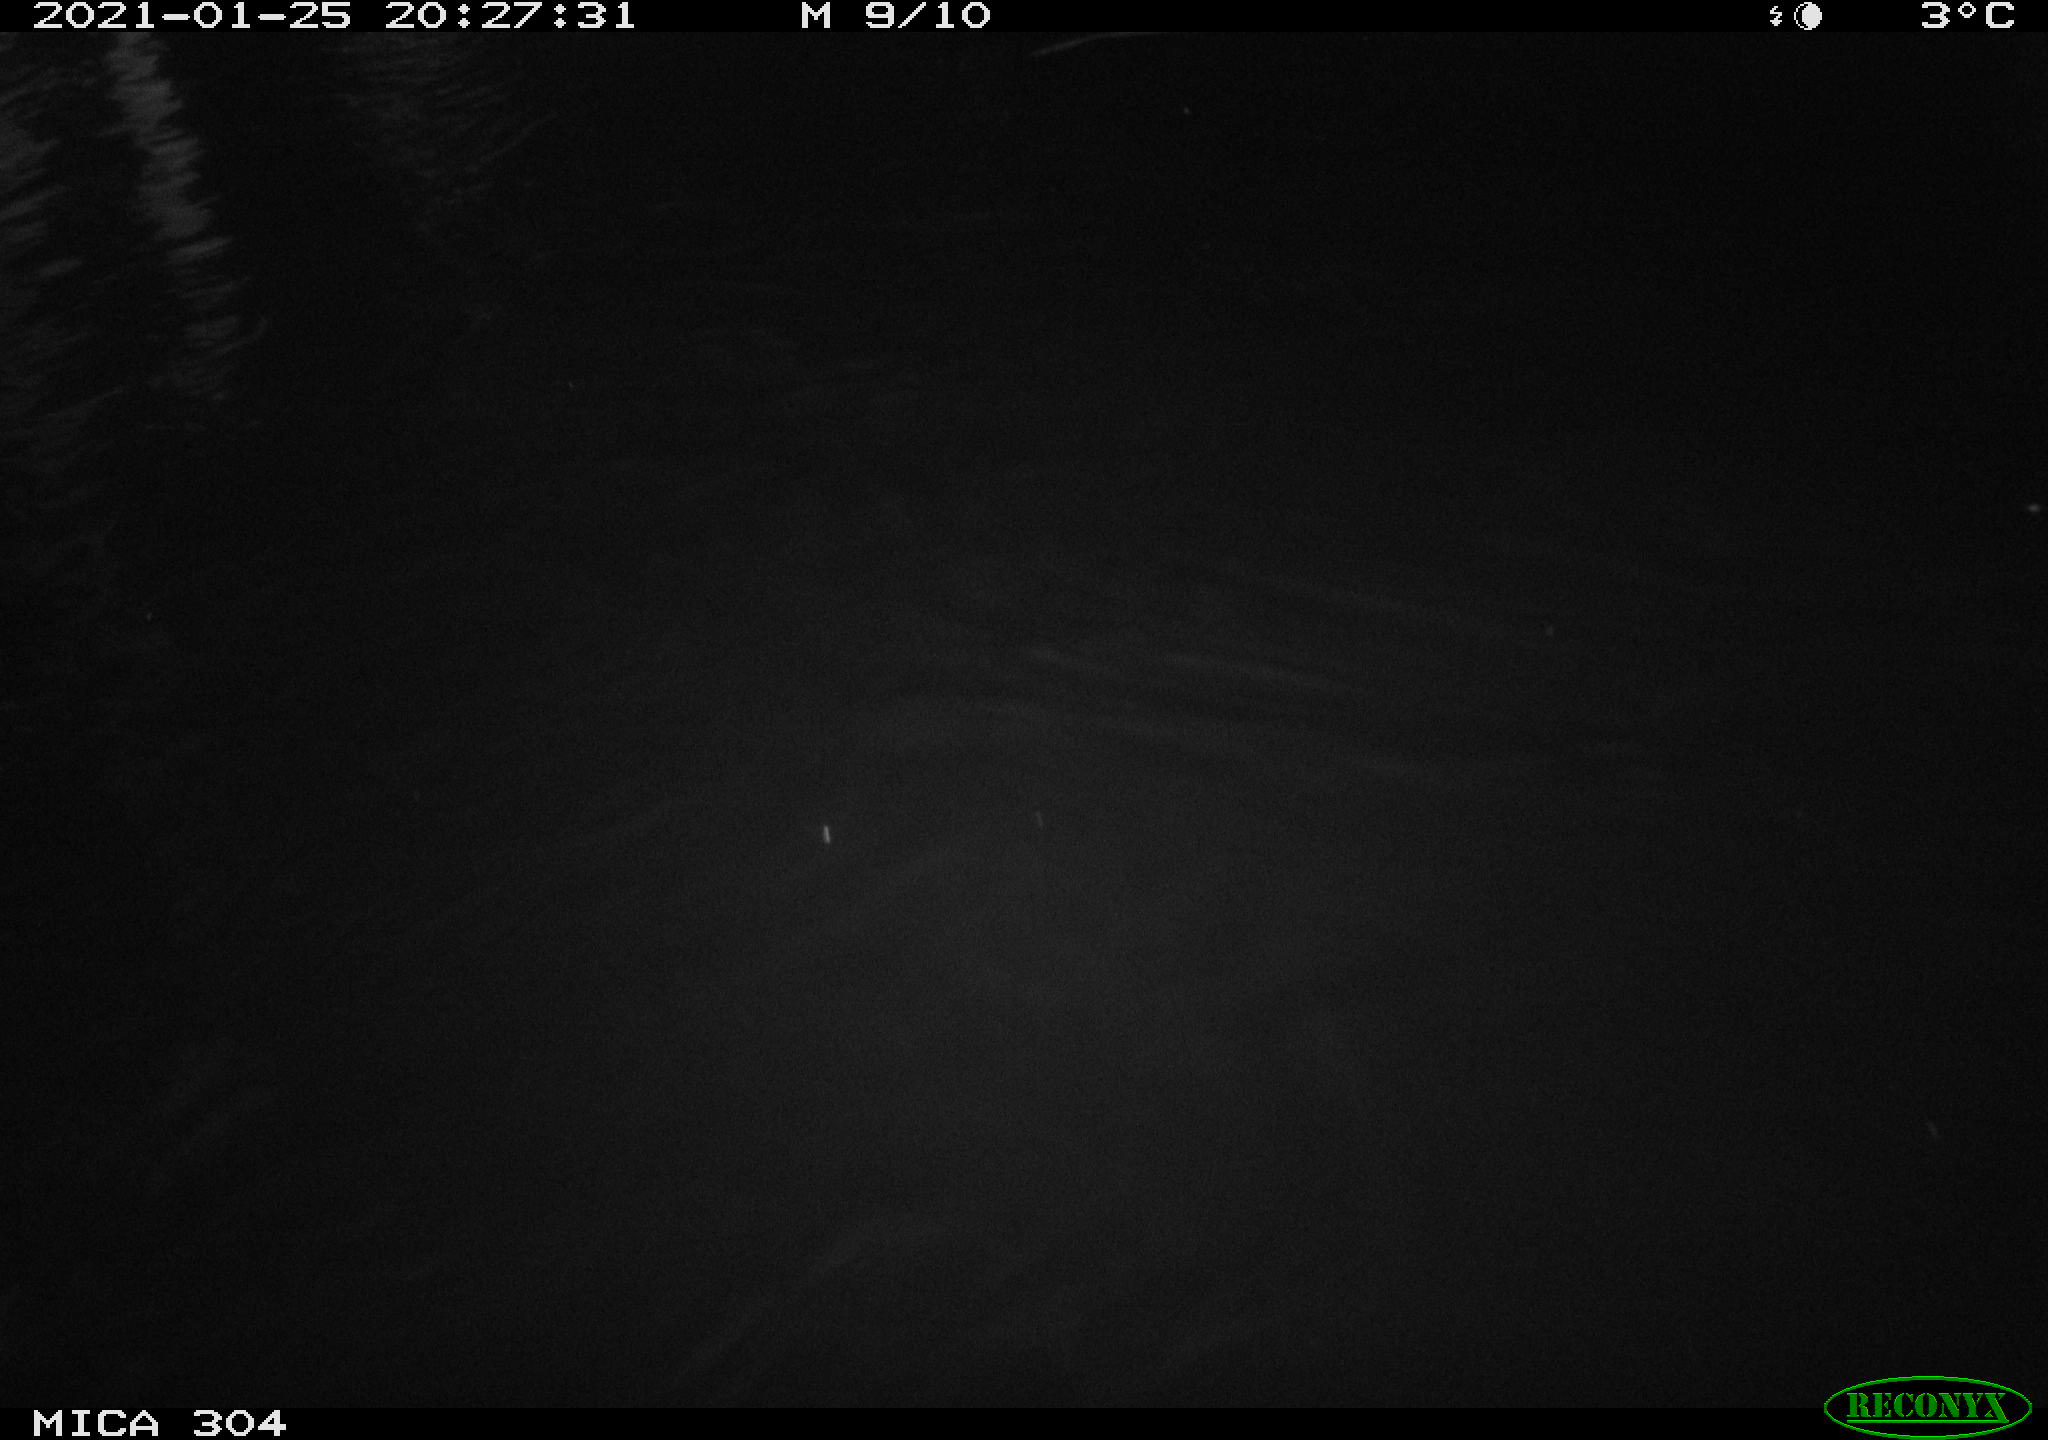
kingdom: Animalia
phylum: Chordata
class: Mammalia
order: Rodentia
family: Muridae
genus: Rattus
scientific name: Rattus norvegicus
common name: Brown rat
